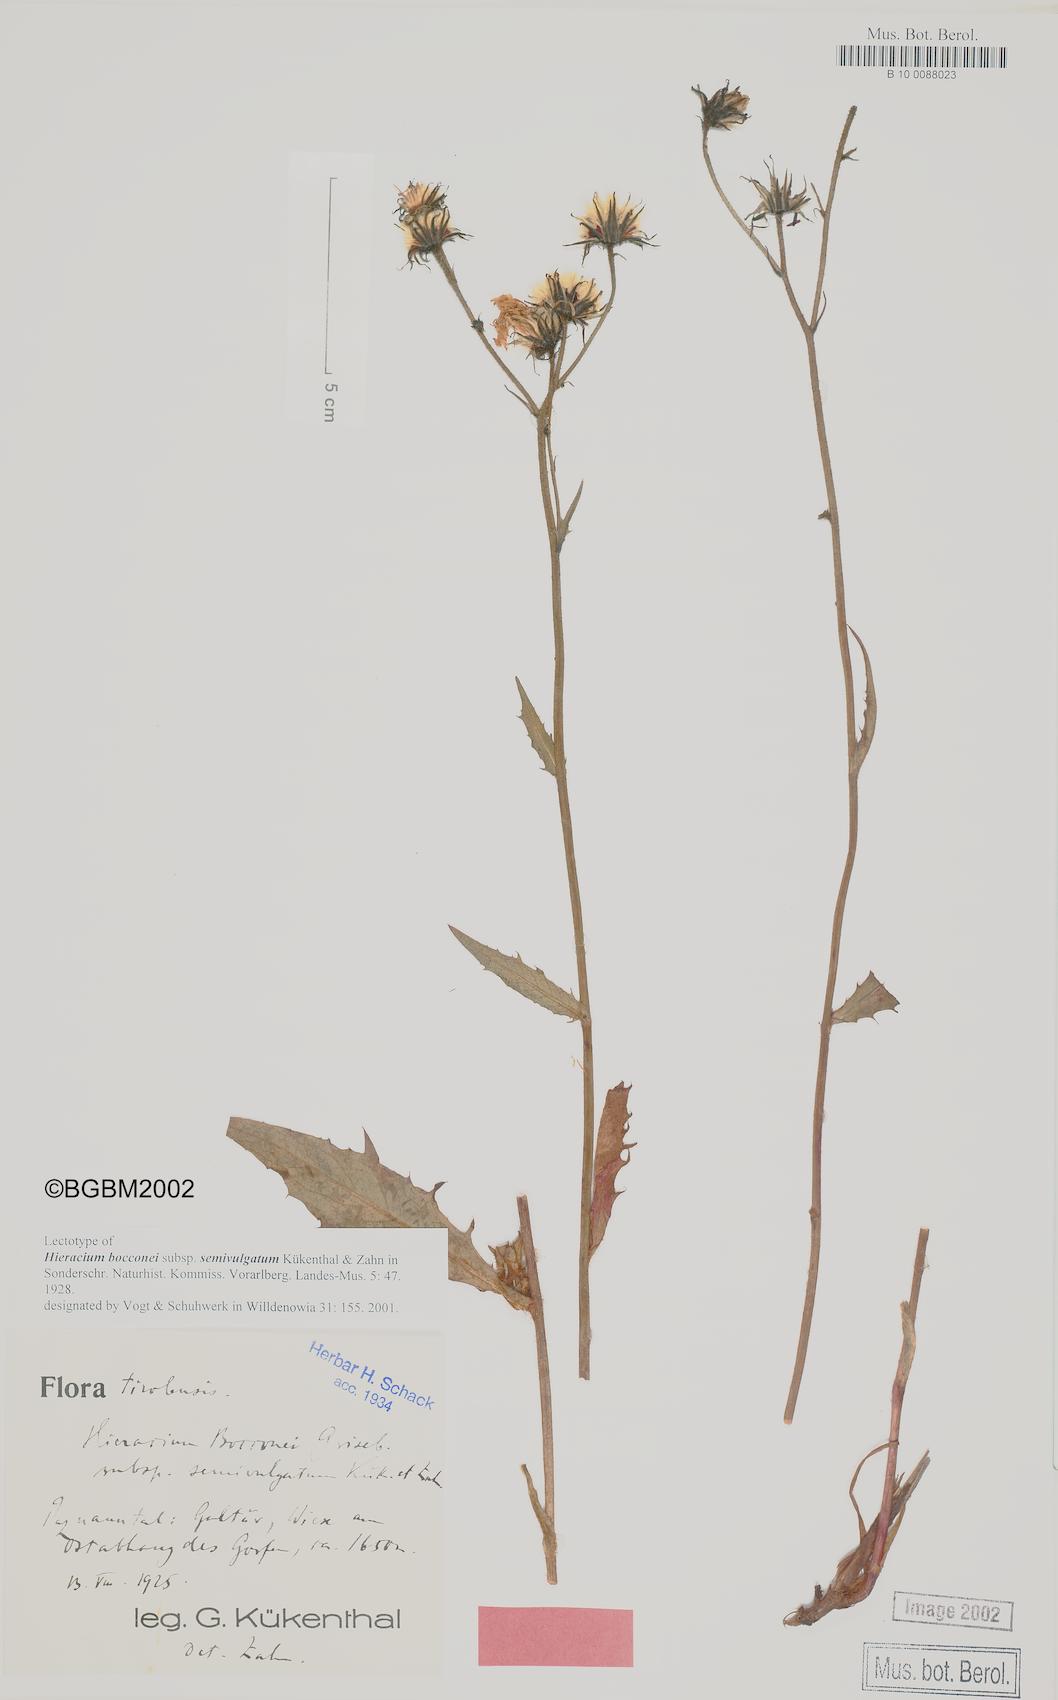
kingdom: Plantae
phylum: Tracheophyta
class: Magnoliopsida
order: Asterales
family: Asteraceae
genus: Hieracium
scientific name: Hieracium bocconei
